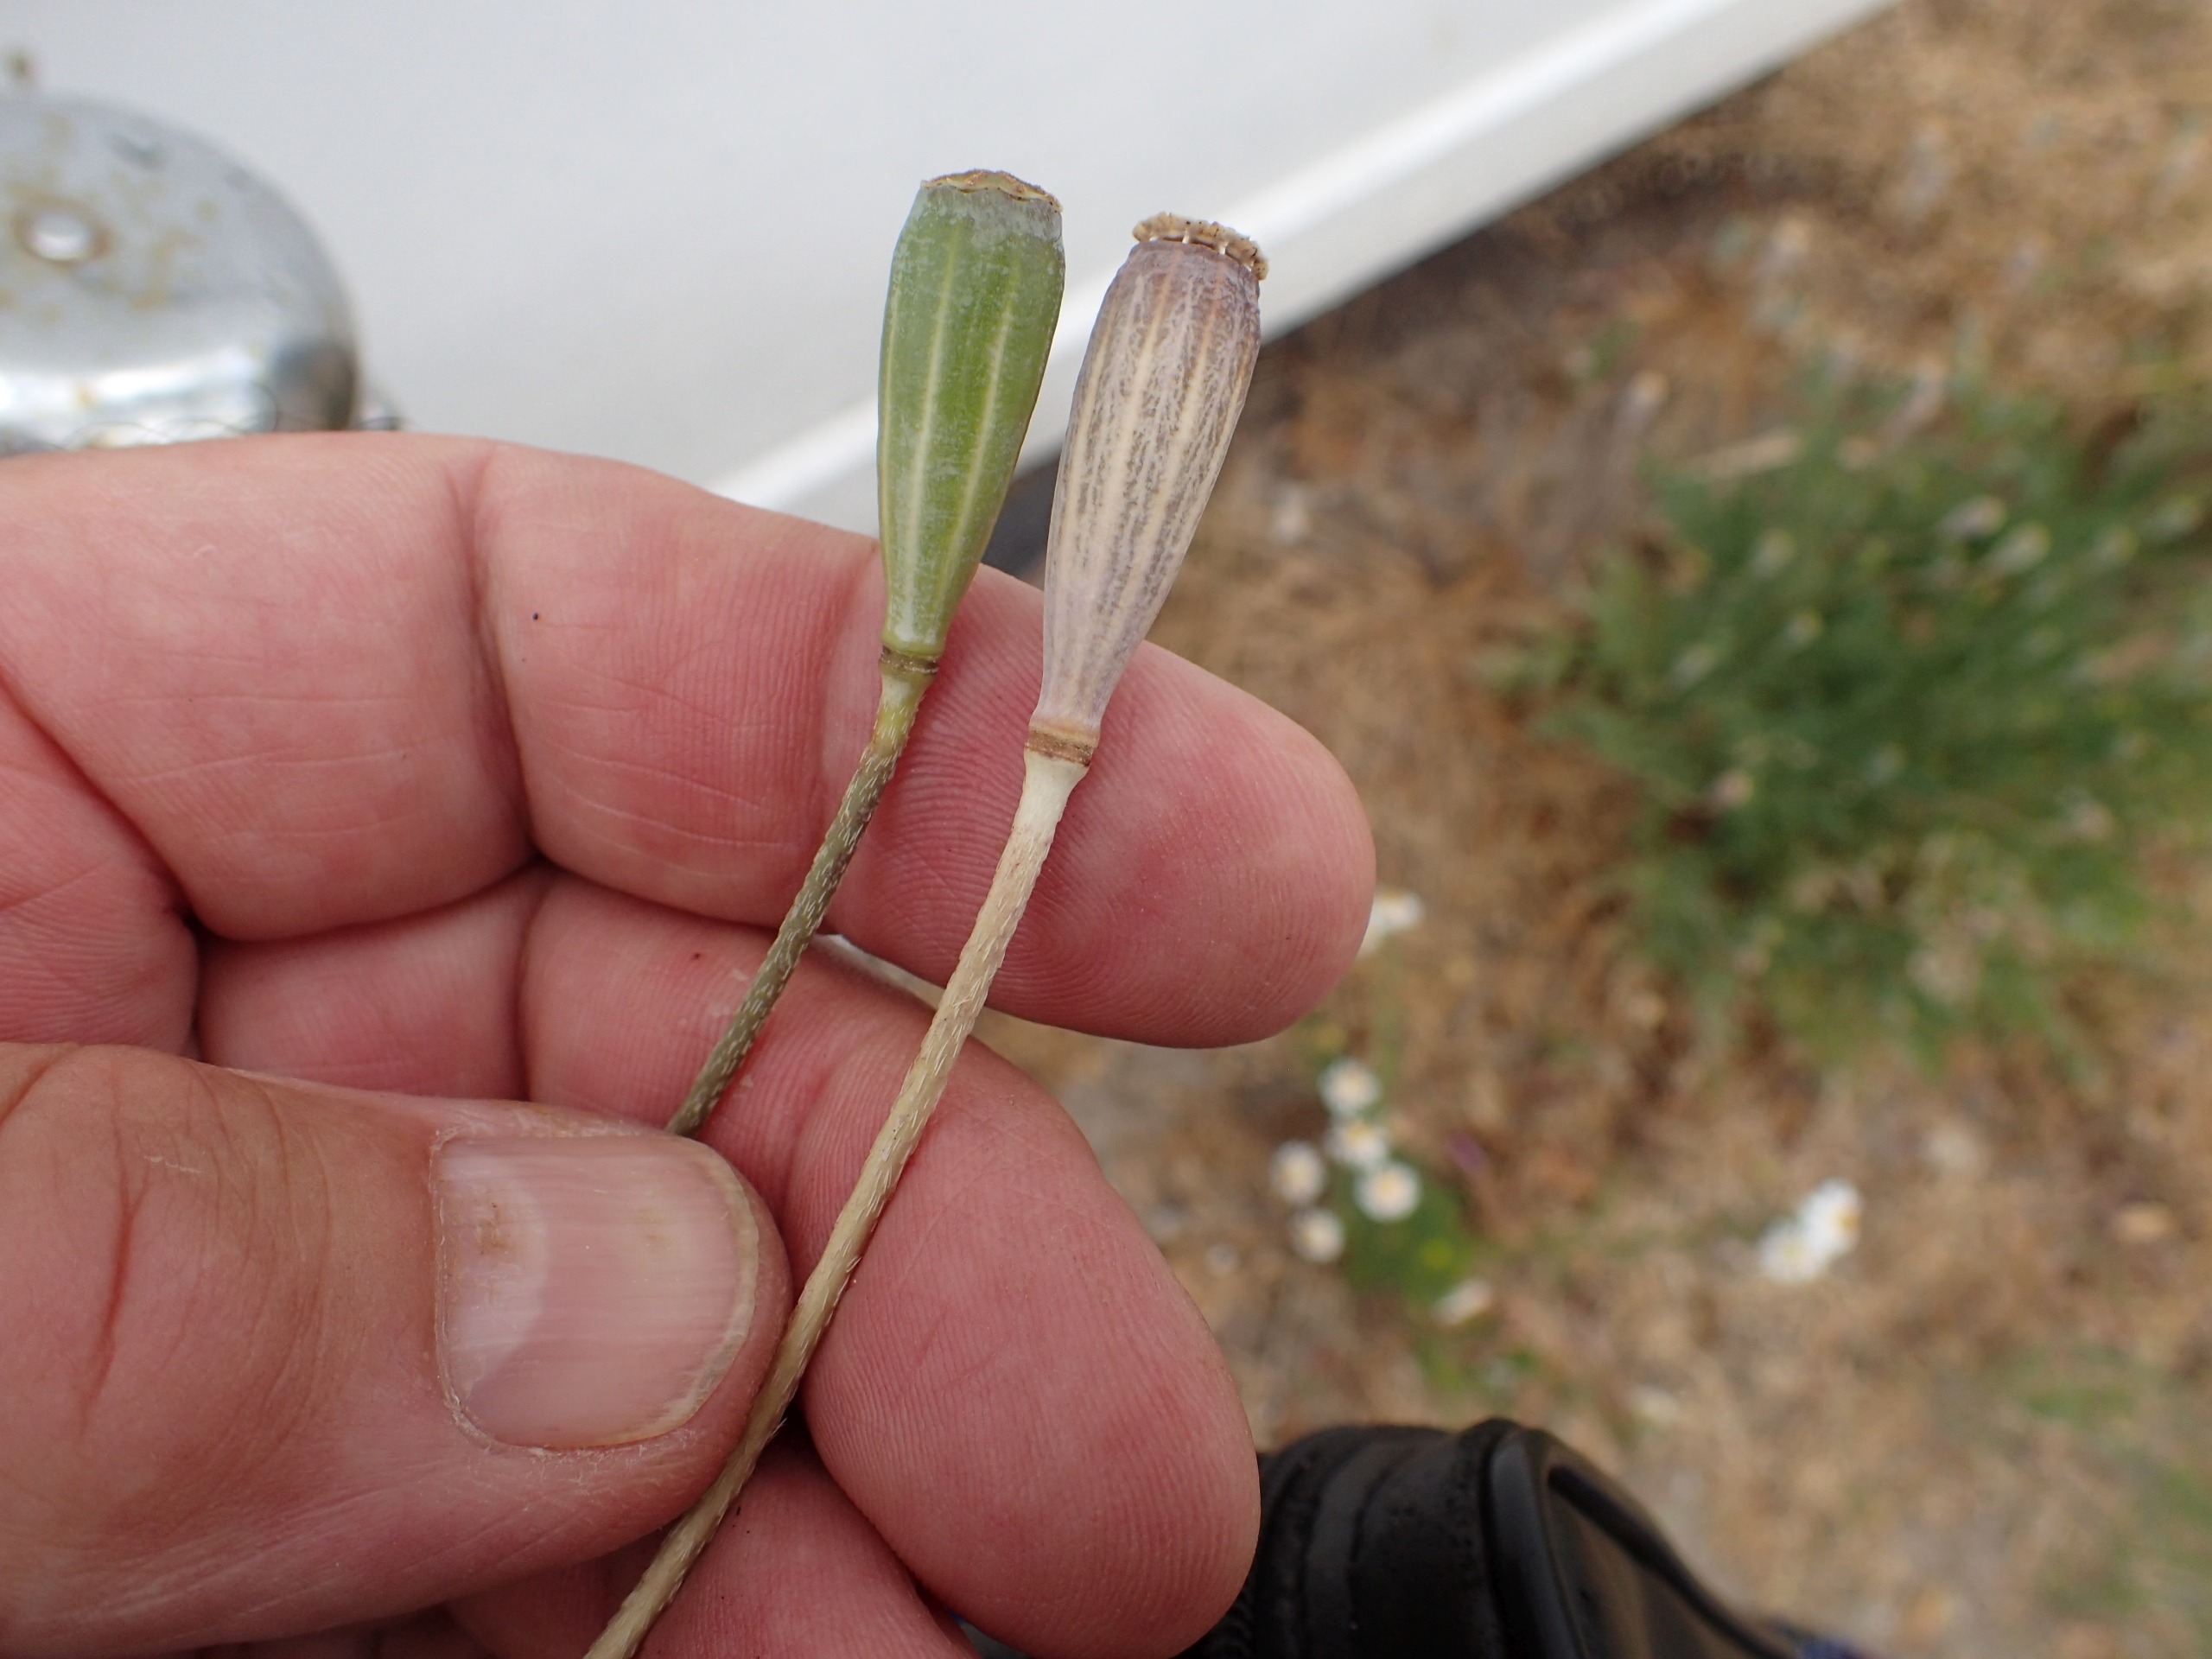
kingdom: Plantae
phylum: Tracheophyta
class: Magnoliopsida
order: Ranunculales
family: Papaveraceae
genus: Papaver
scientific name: Papaver dubium
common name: Gærde-valmue
